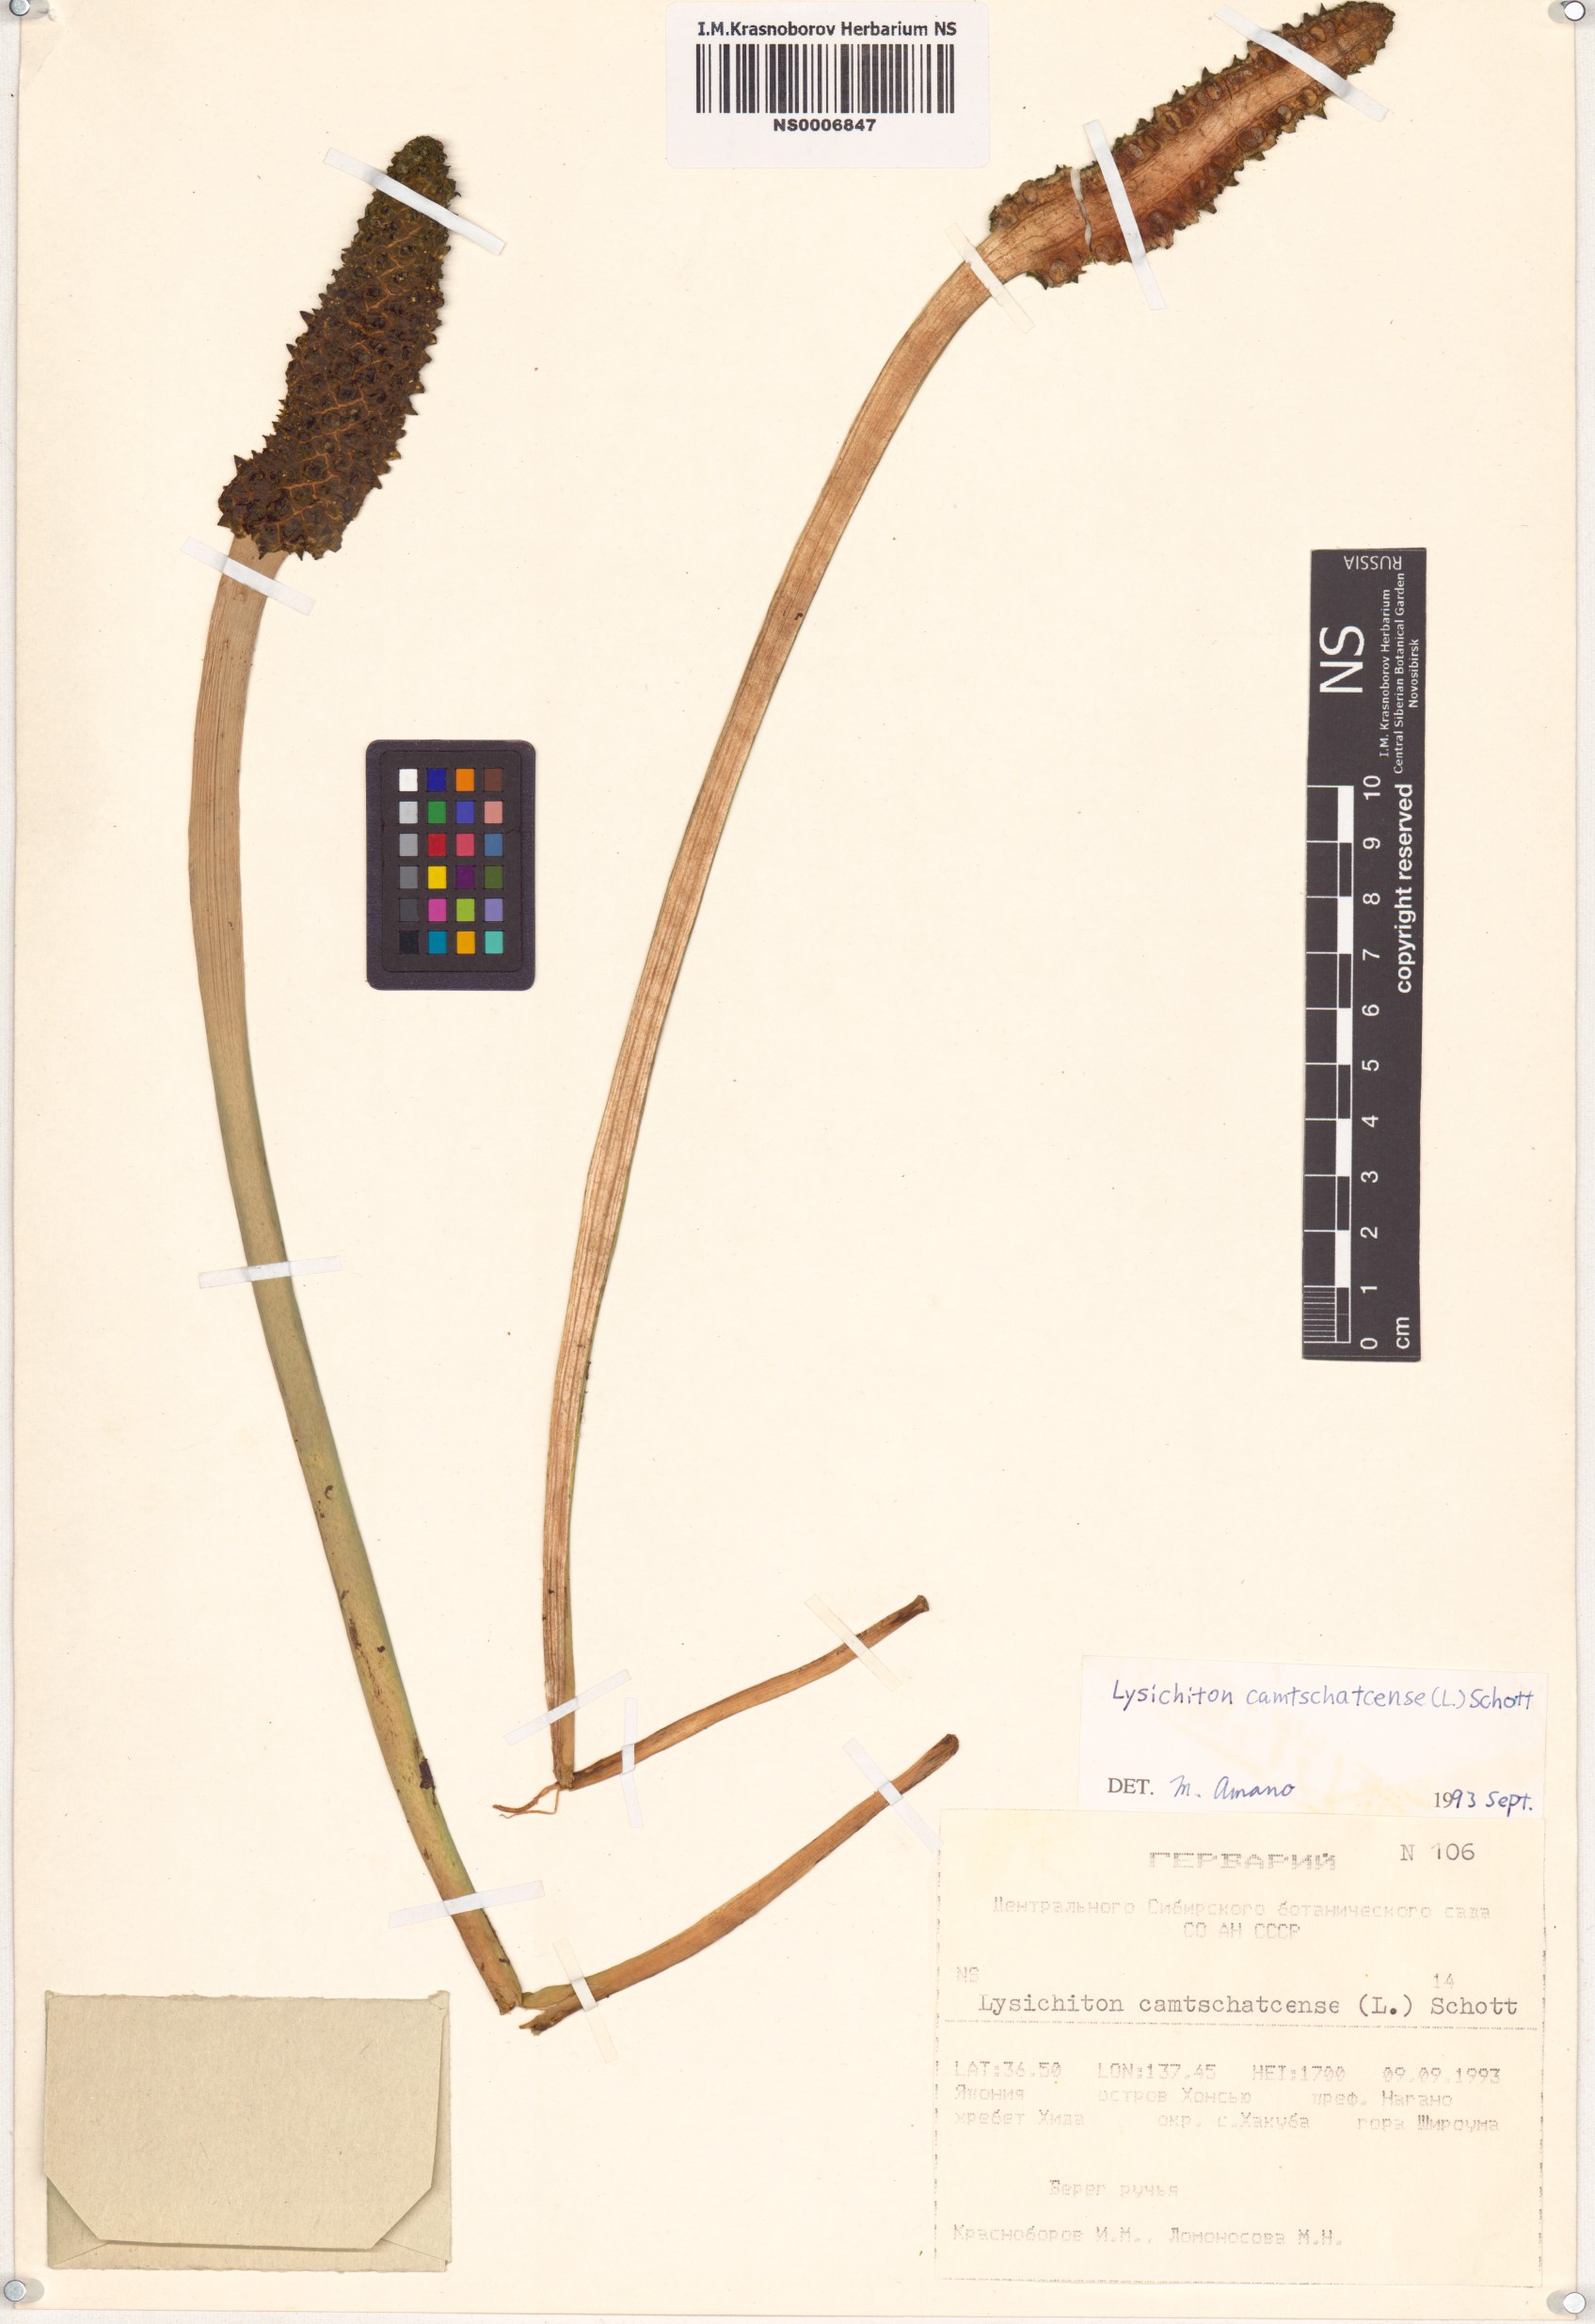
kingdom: Plantae
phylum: Tracheophyta
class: Liliopsida
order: Alismatales
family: Araceae
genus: Lysichiton
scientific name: Lysichiton camtschatcensis
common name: Asian skunk-cabbage
